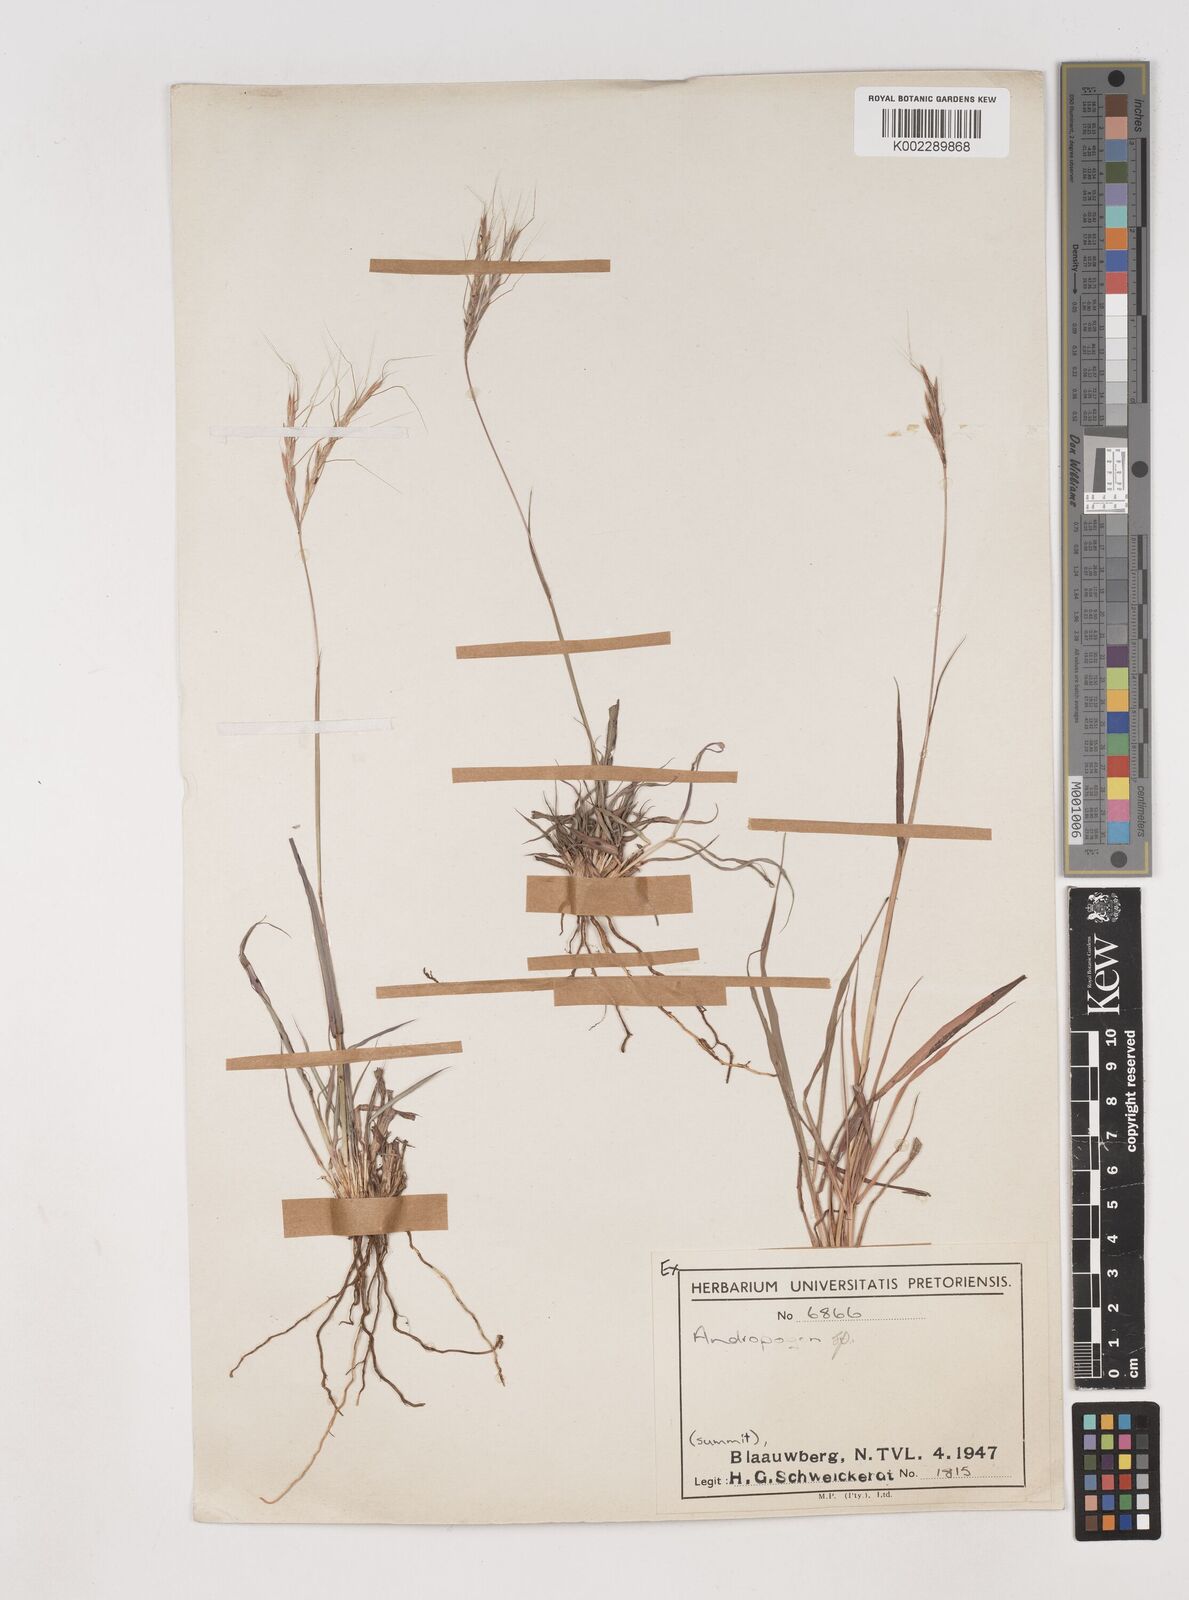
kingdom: Plantae
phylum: Tracheophyta
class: Liliopsida
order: Poales
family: Poaceae
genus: Diheteropogon
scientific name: Diheteropogon amplectens
